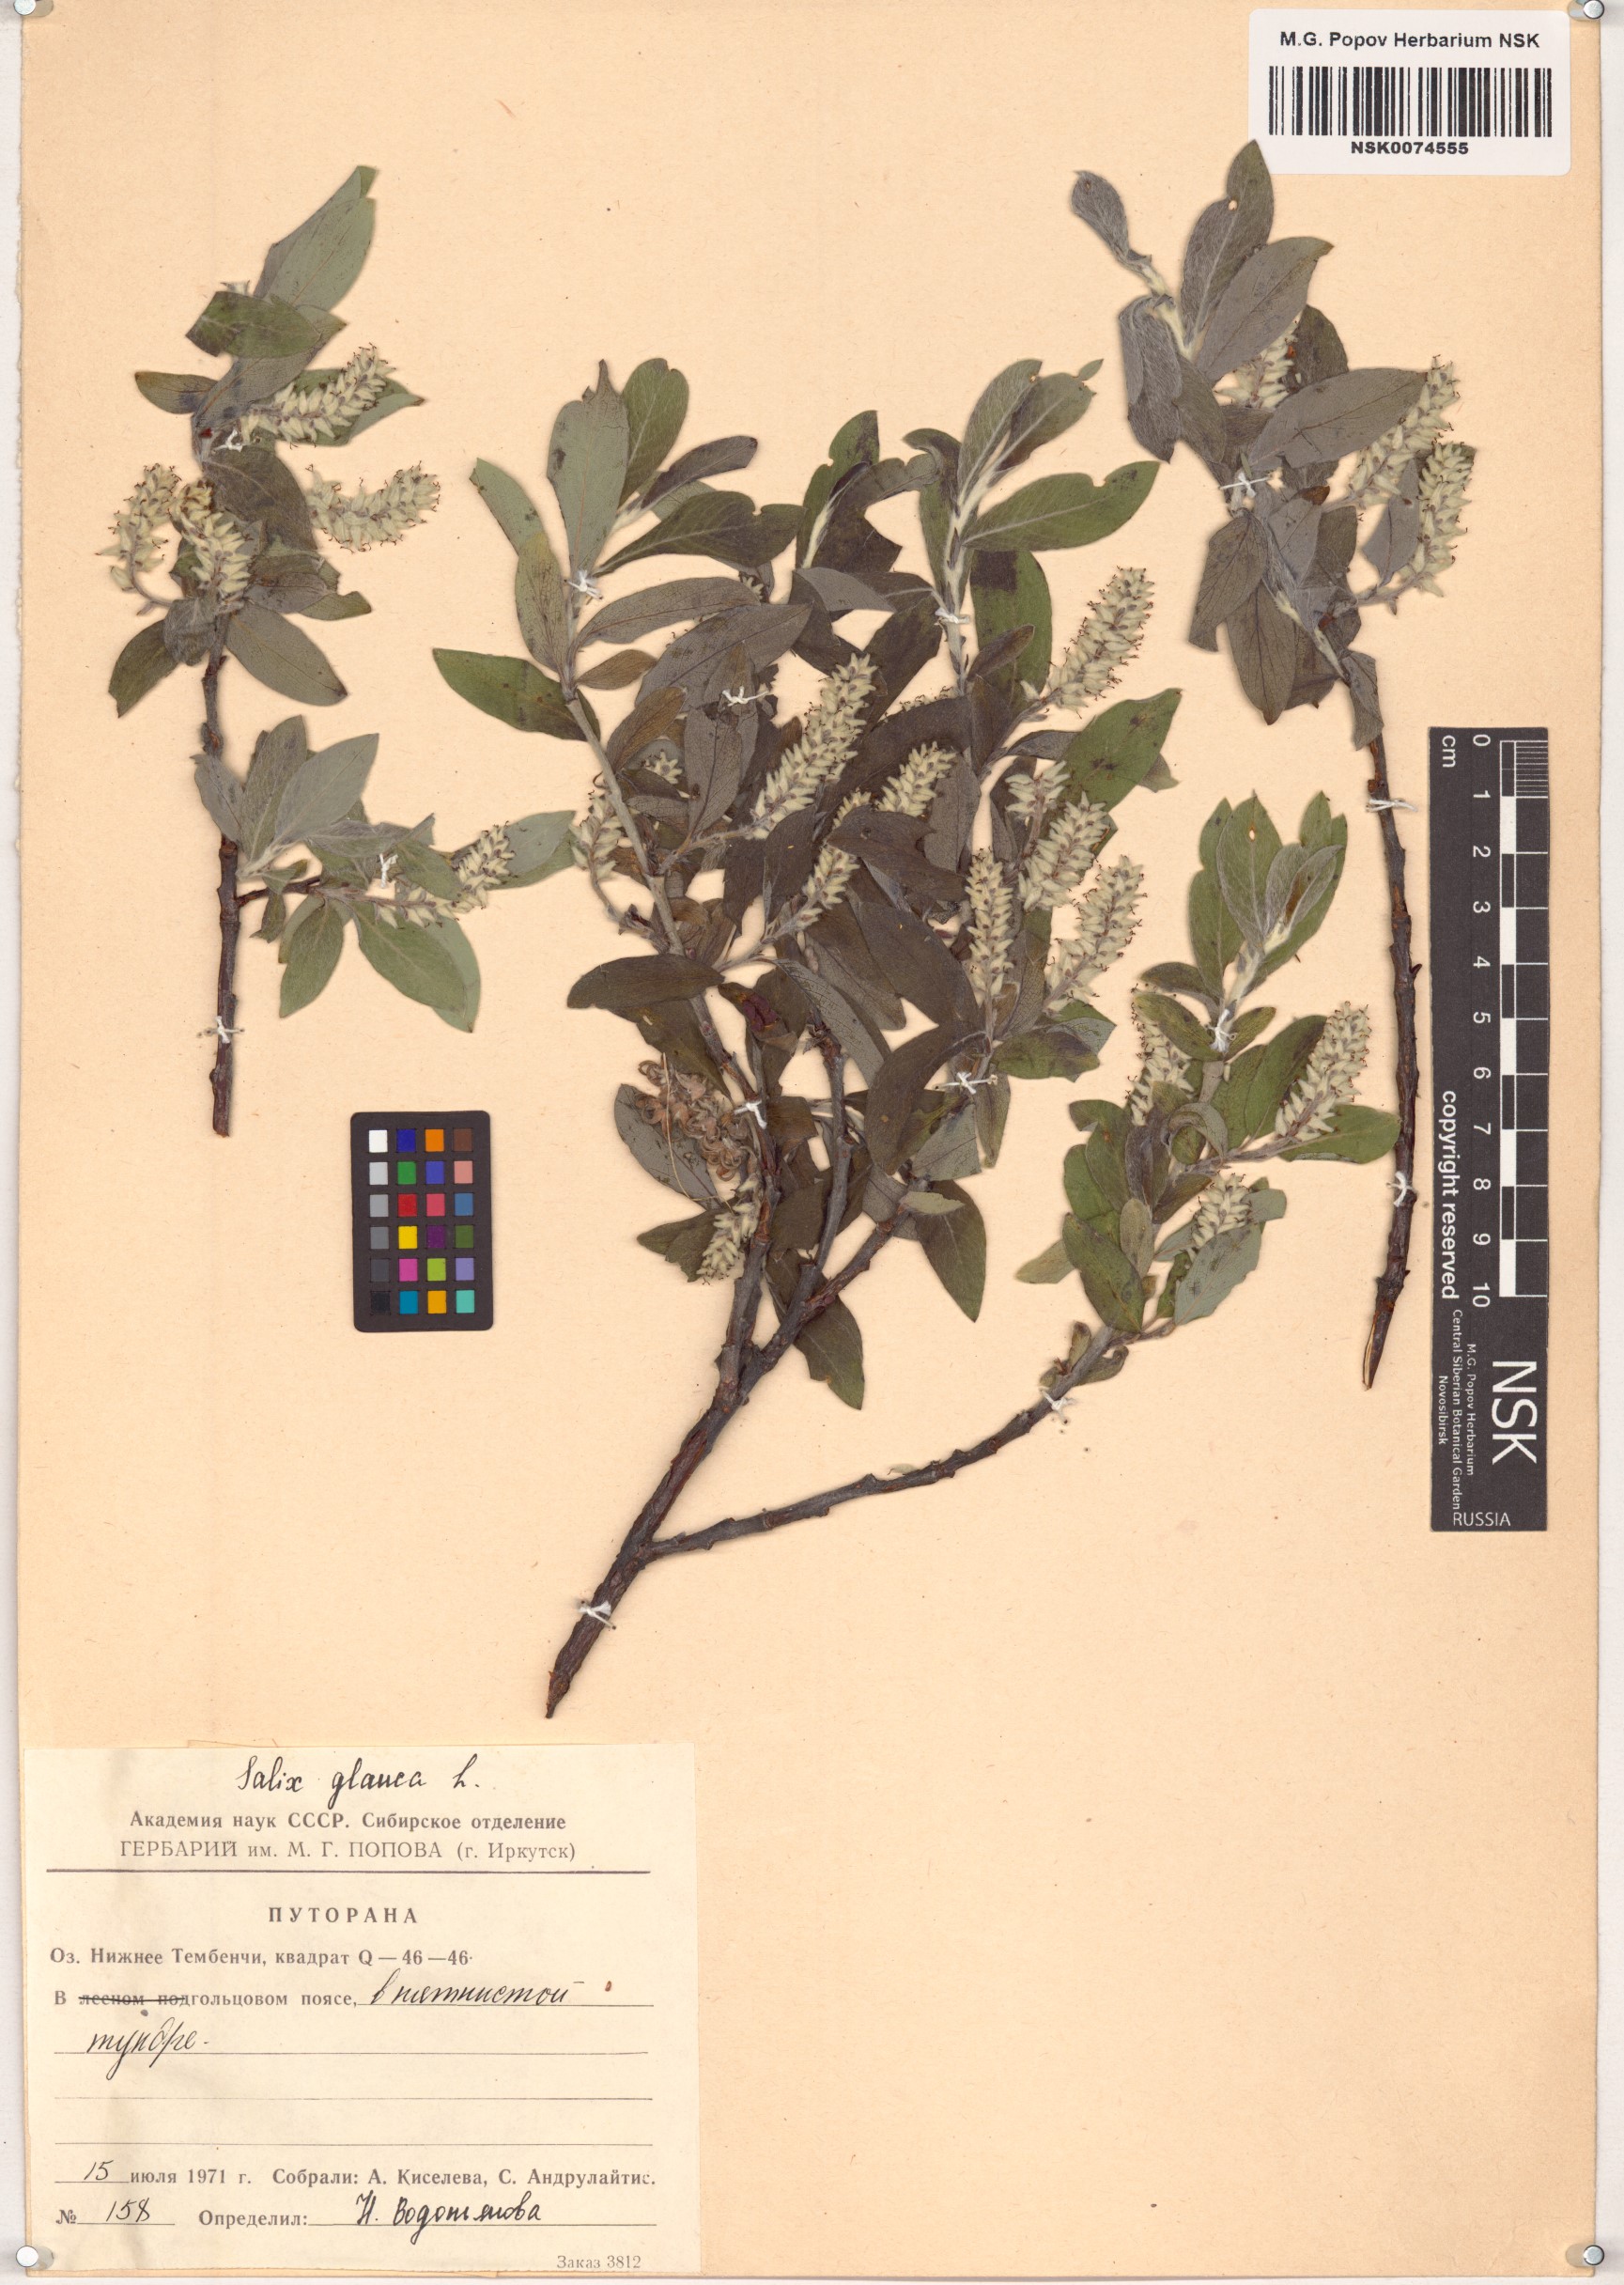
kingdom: Plantae
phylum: Tracheophyta
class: Magnoliopsida
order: Malpighiales
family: Salicaceae
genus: Salix
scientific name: Salix glauca
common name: Glaucous willow
